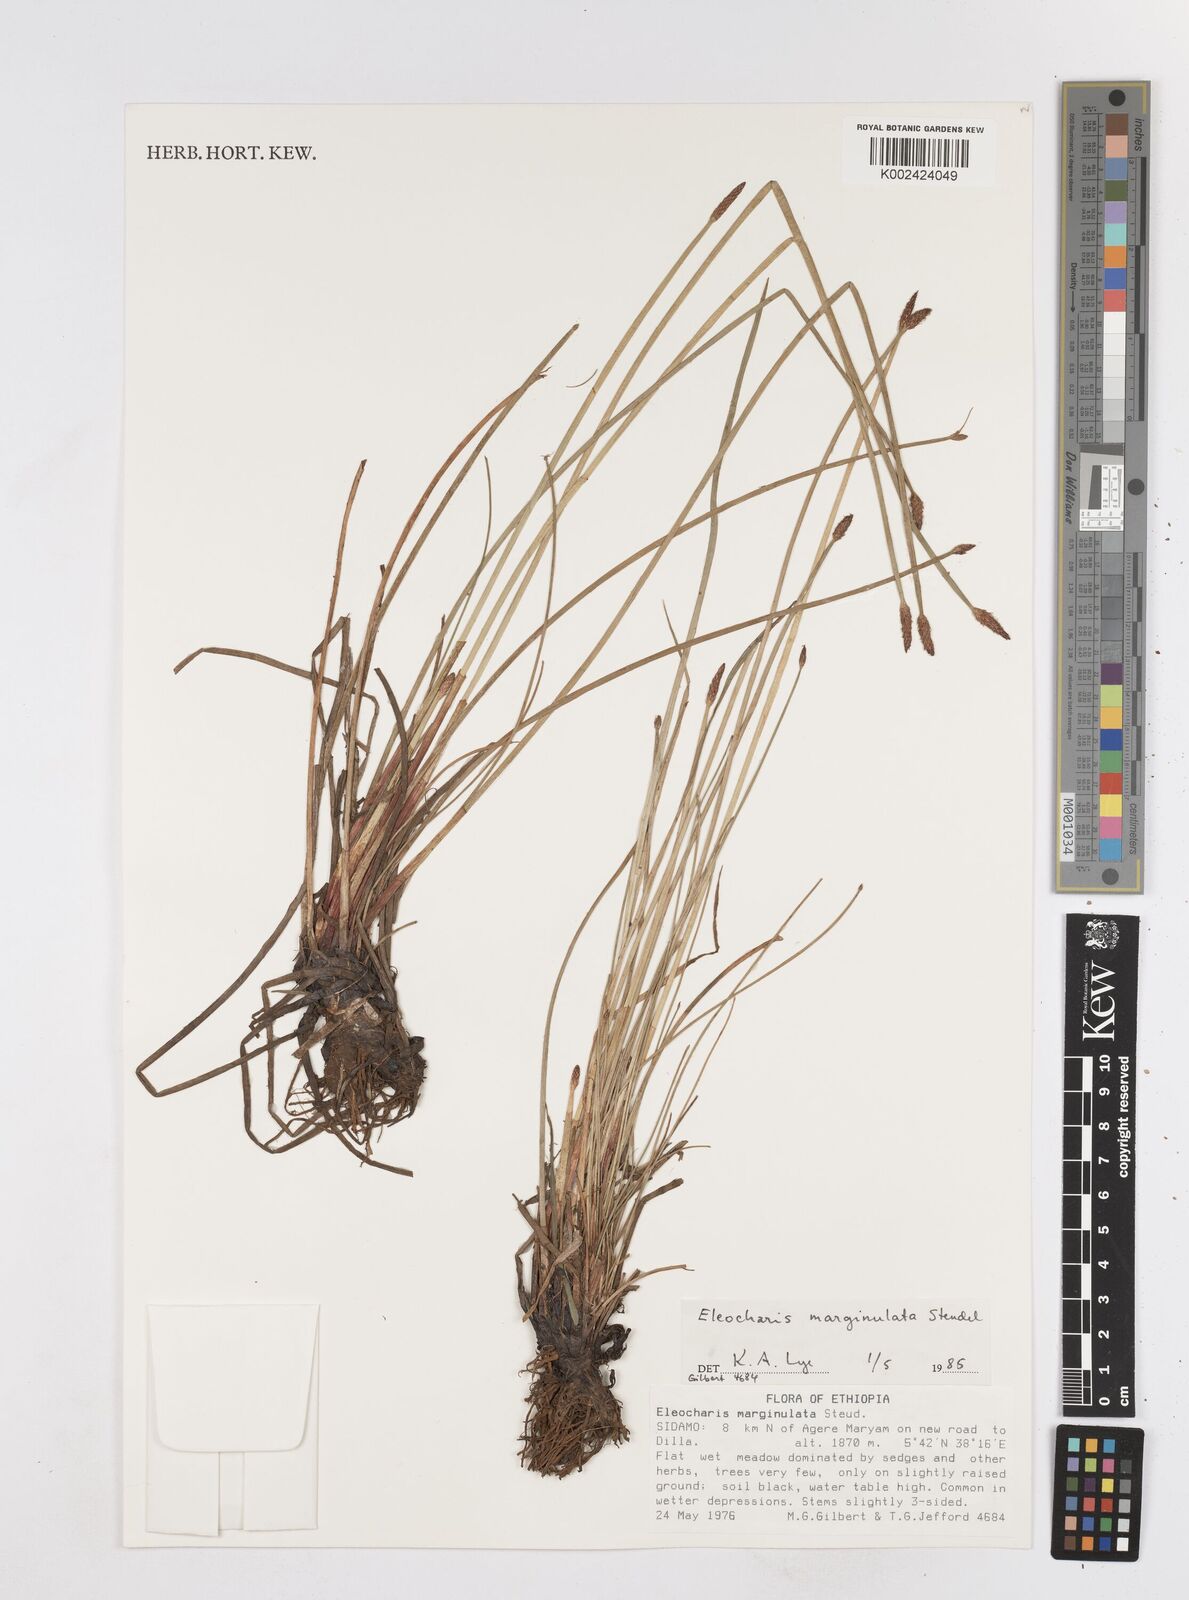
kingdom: Plantae
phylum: Tracheophyta
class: Liliopsida
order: Poales
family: Cyperaceae
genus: Eleocharis
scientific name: Eleocharis marginulata
